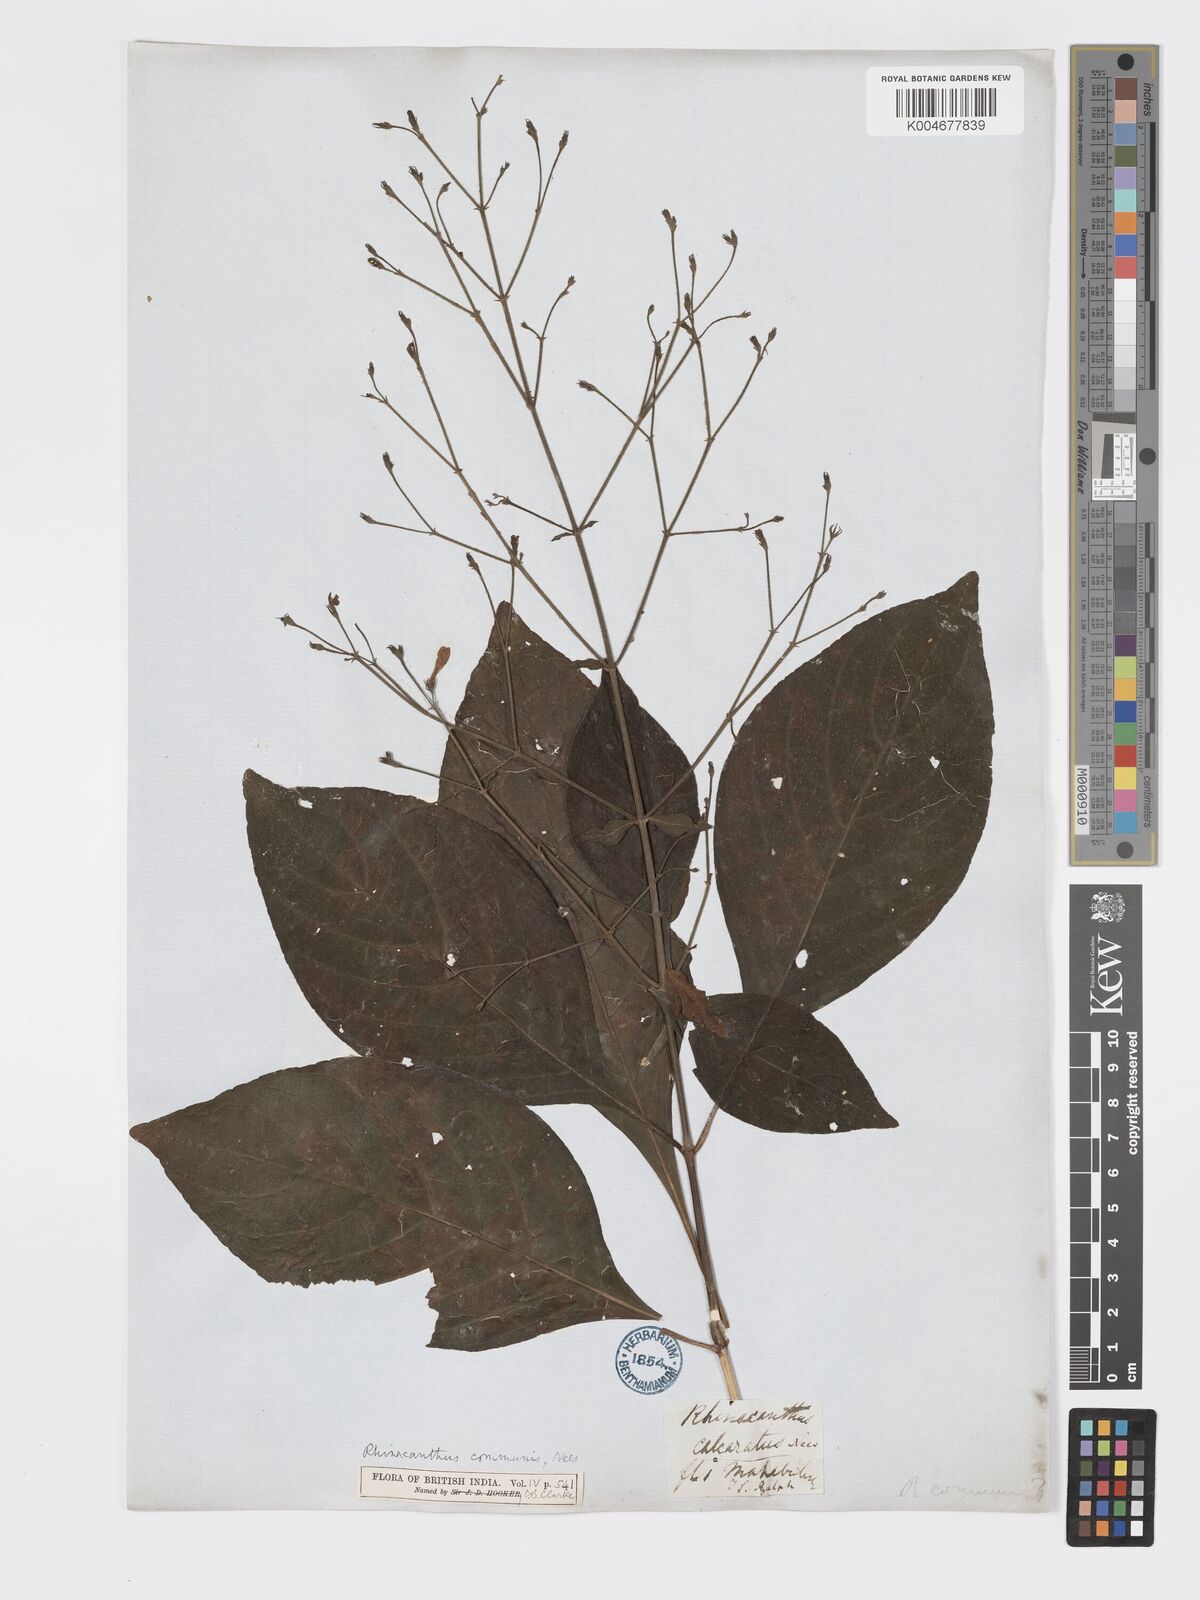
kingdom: Plantae
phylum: Tracheophyta
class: Magnoliopsida
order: Lamiales
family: Acanthaceae
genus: Rhinacanthus
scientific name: Rhinacanthus nasutus
